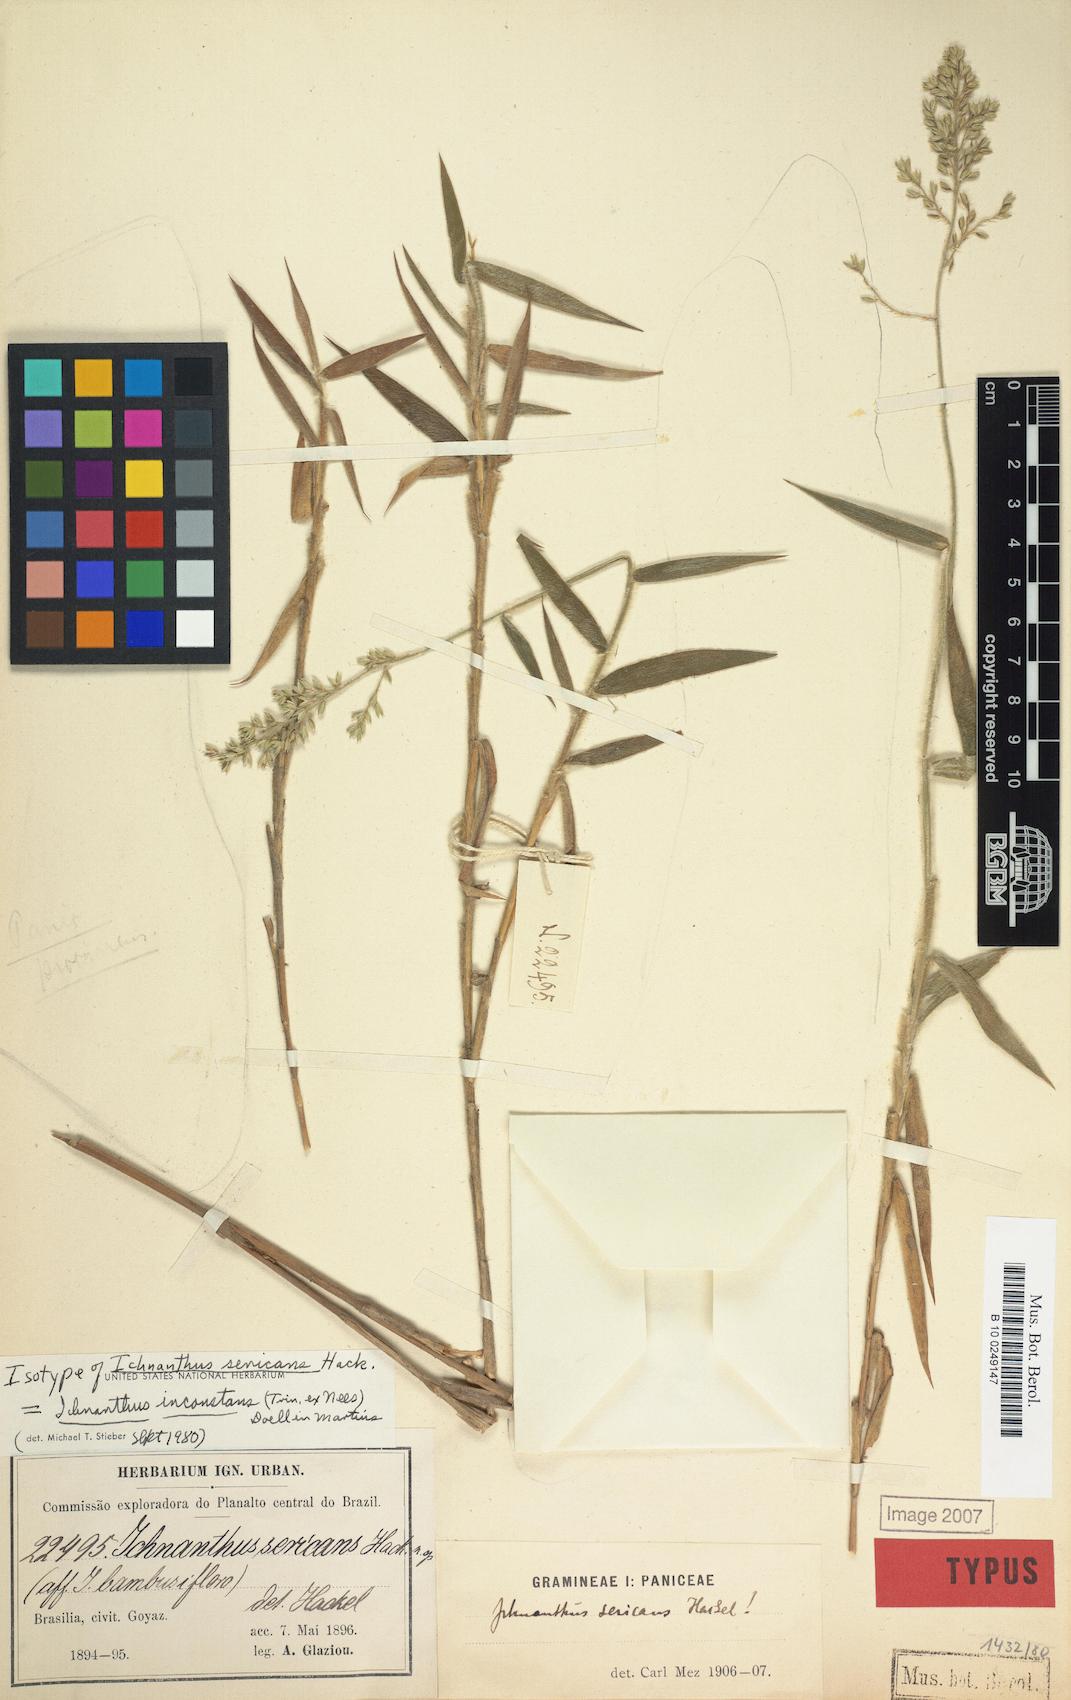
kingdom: Plantae
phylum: Tracheophyta
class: Liliopsida
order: Poales
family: Poaceae
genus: Ichnanthus
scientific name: Ichnanthus inconstans
